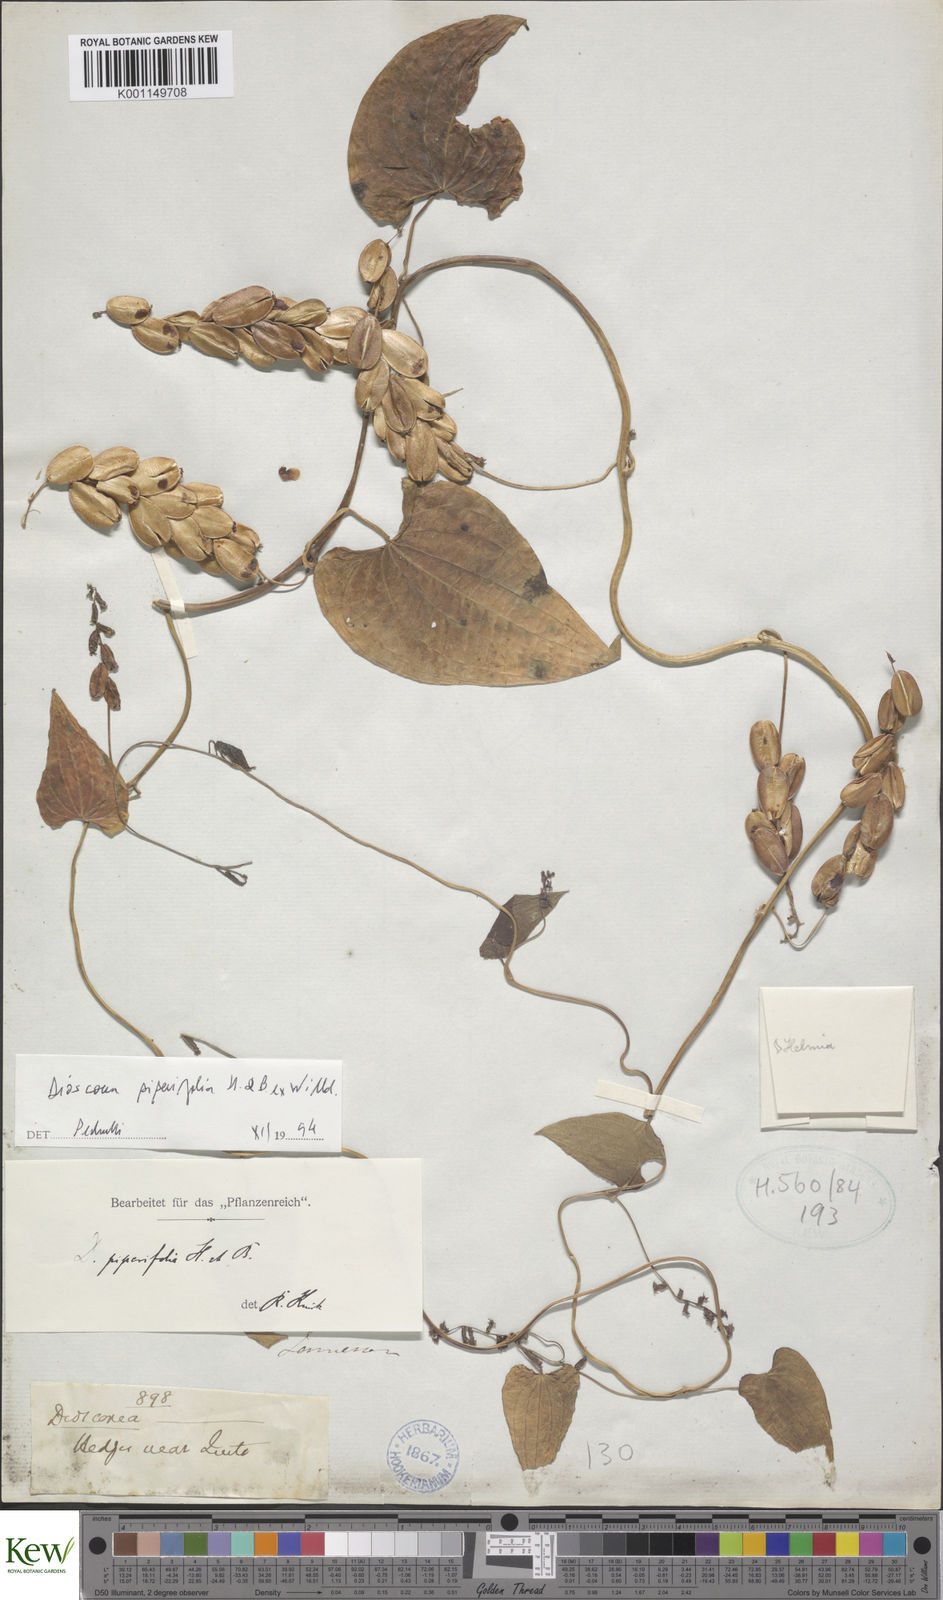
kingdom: Plantae
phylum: Tracheophyta
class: Liliopsida
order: Dioscoreales
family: Dioscoreaceae
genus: Dioscorea
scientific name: Dioscorea piperifolia
